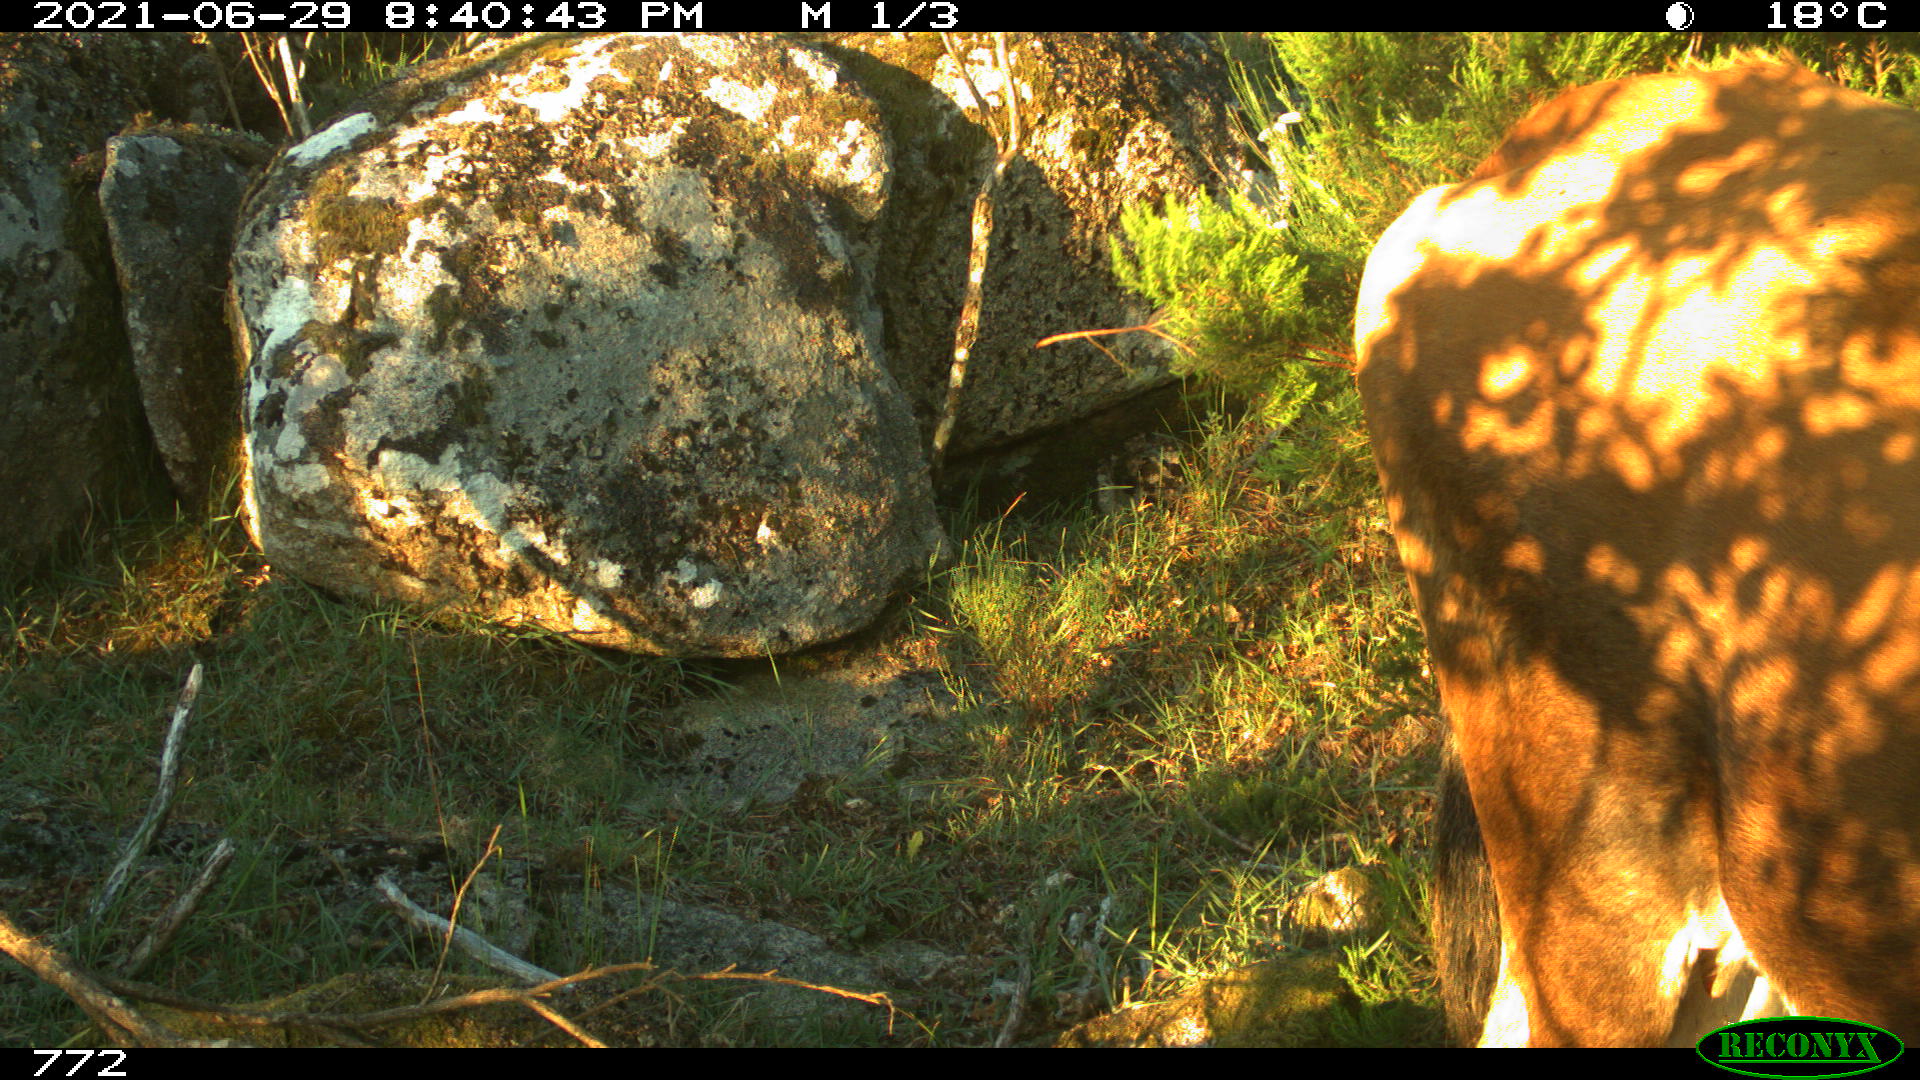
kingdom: Animalia
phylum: Chordata
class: Mammalia
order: Artiodactyla
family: Bovidae
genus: Bos
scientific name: Bos taurus
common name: Domesticated cattle
